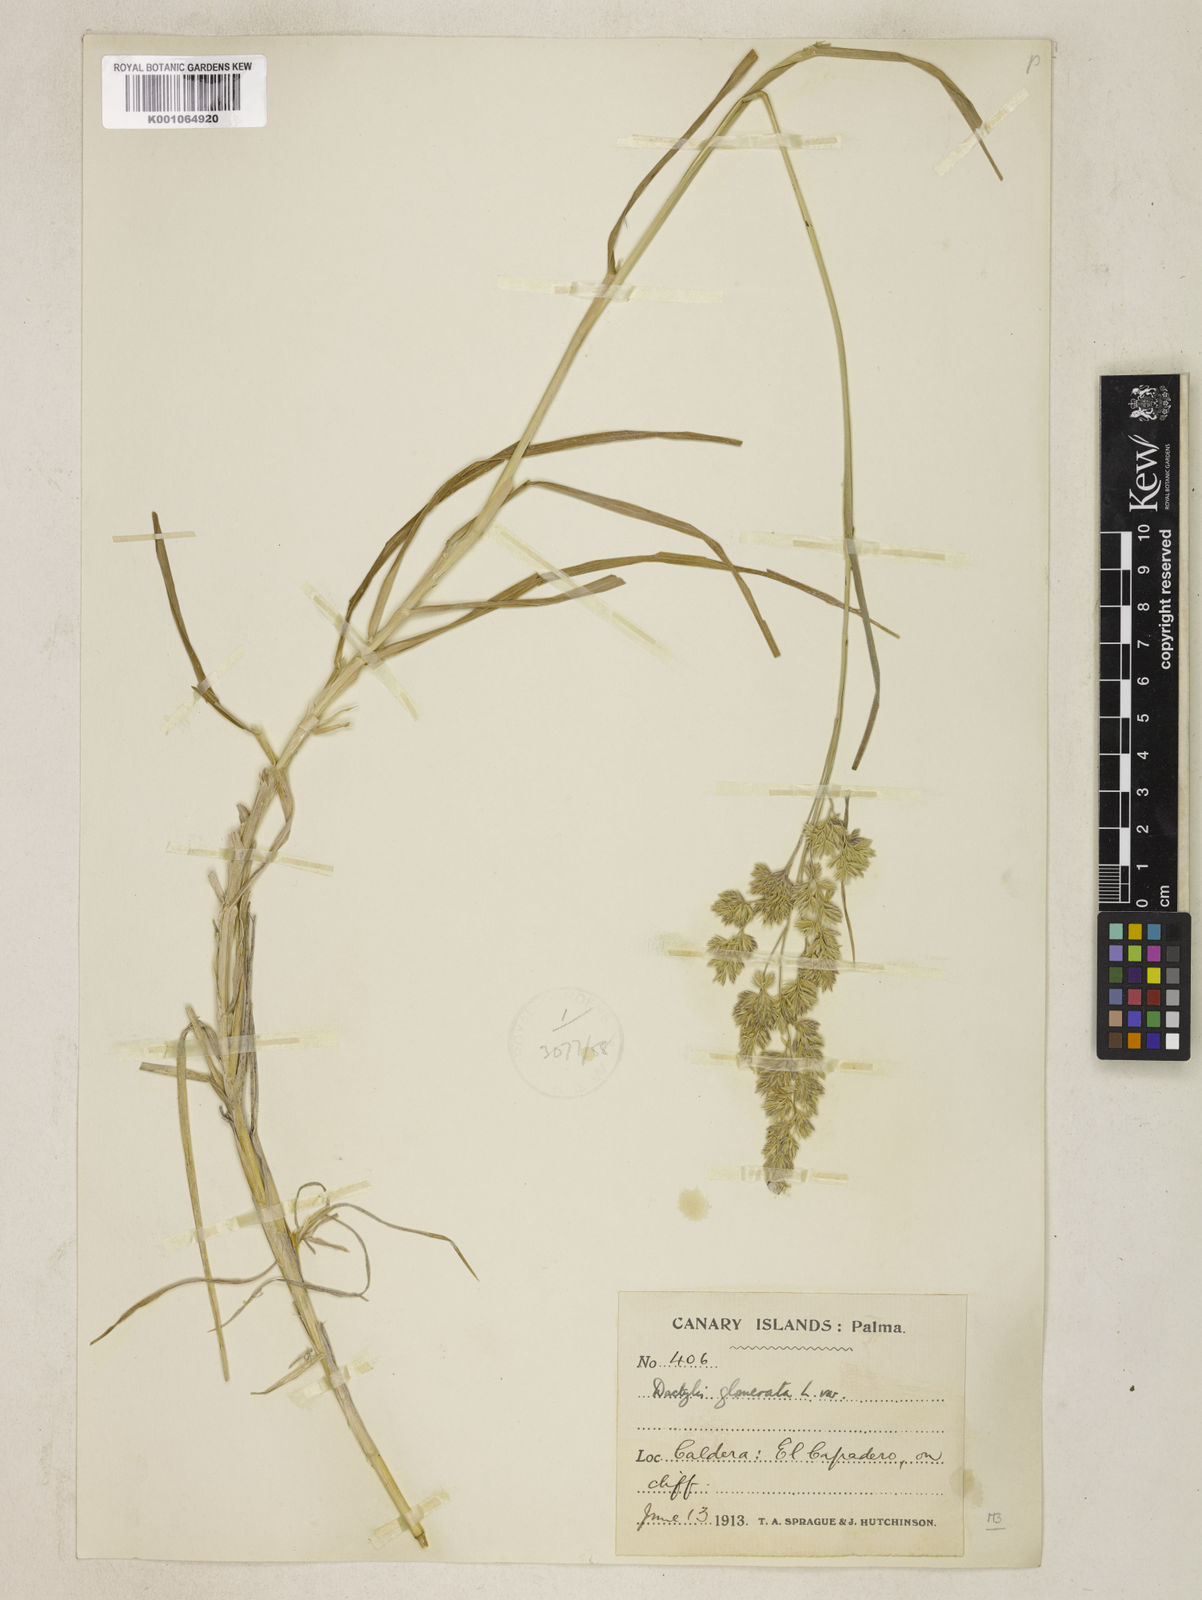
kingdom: Plantae
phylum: Tracheophyta
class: Liliopsida
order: Poales
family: Poaceae
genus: Dactylis
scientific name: Dactylis glomerata
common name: Orchardgrass
